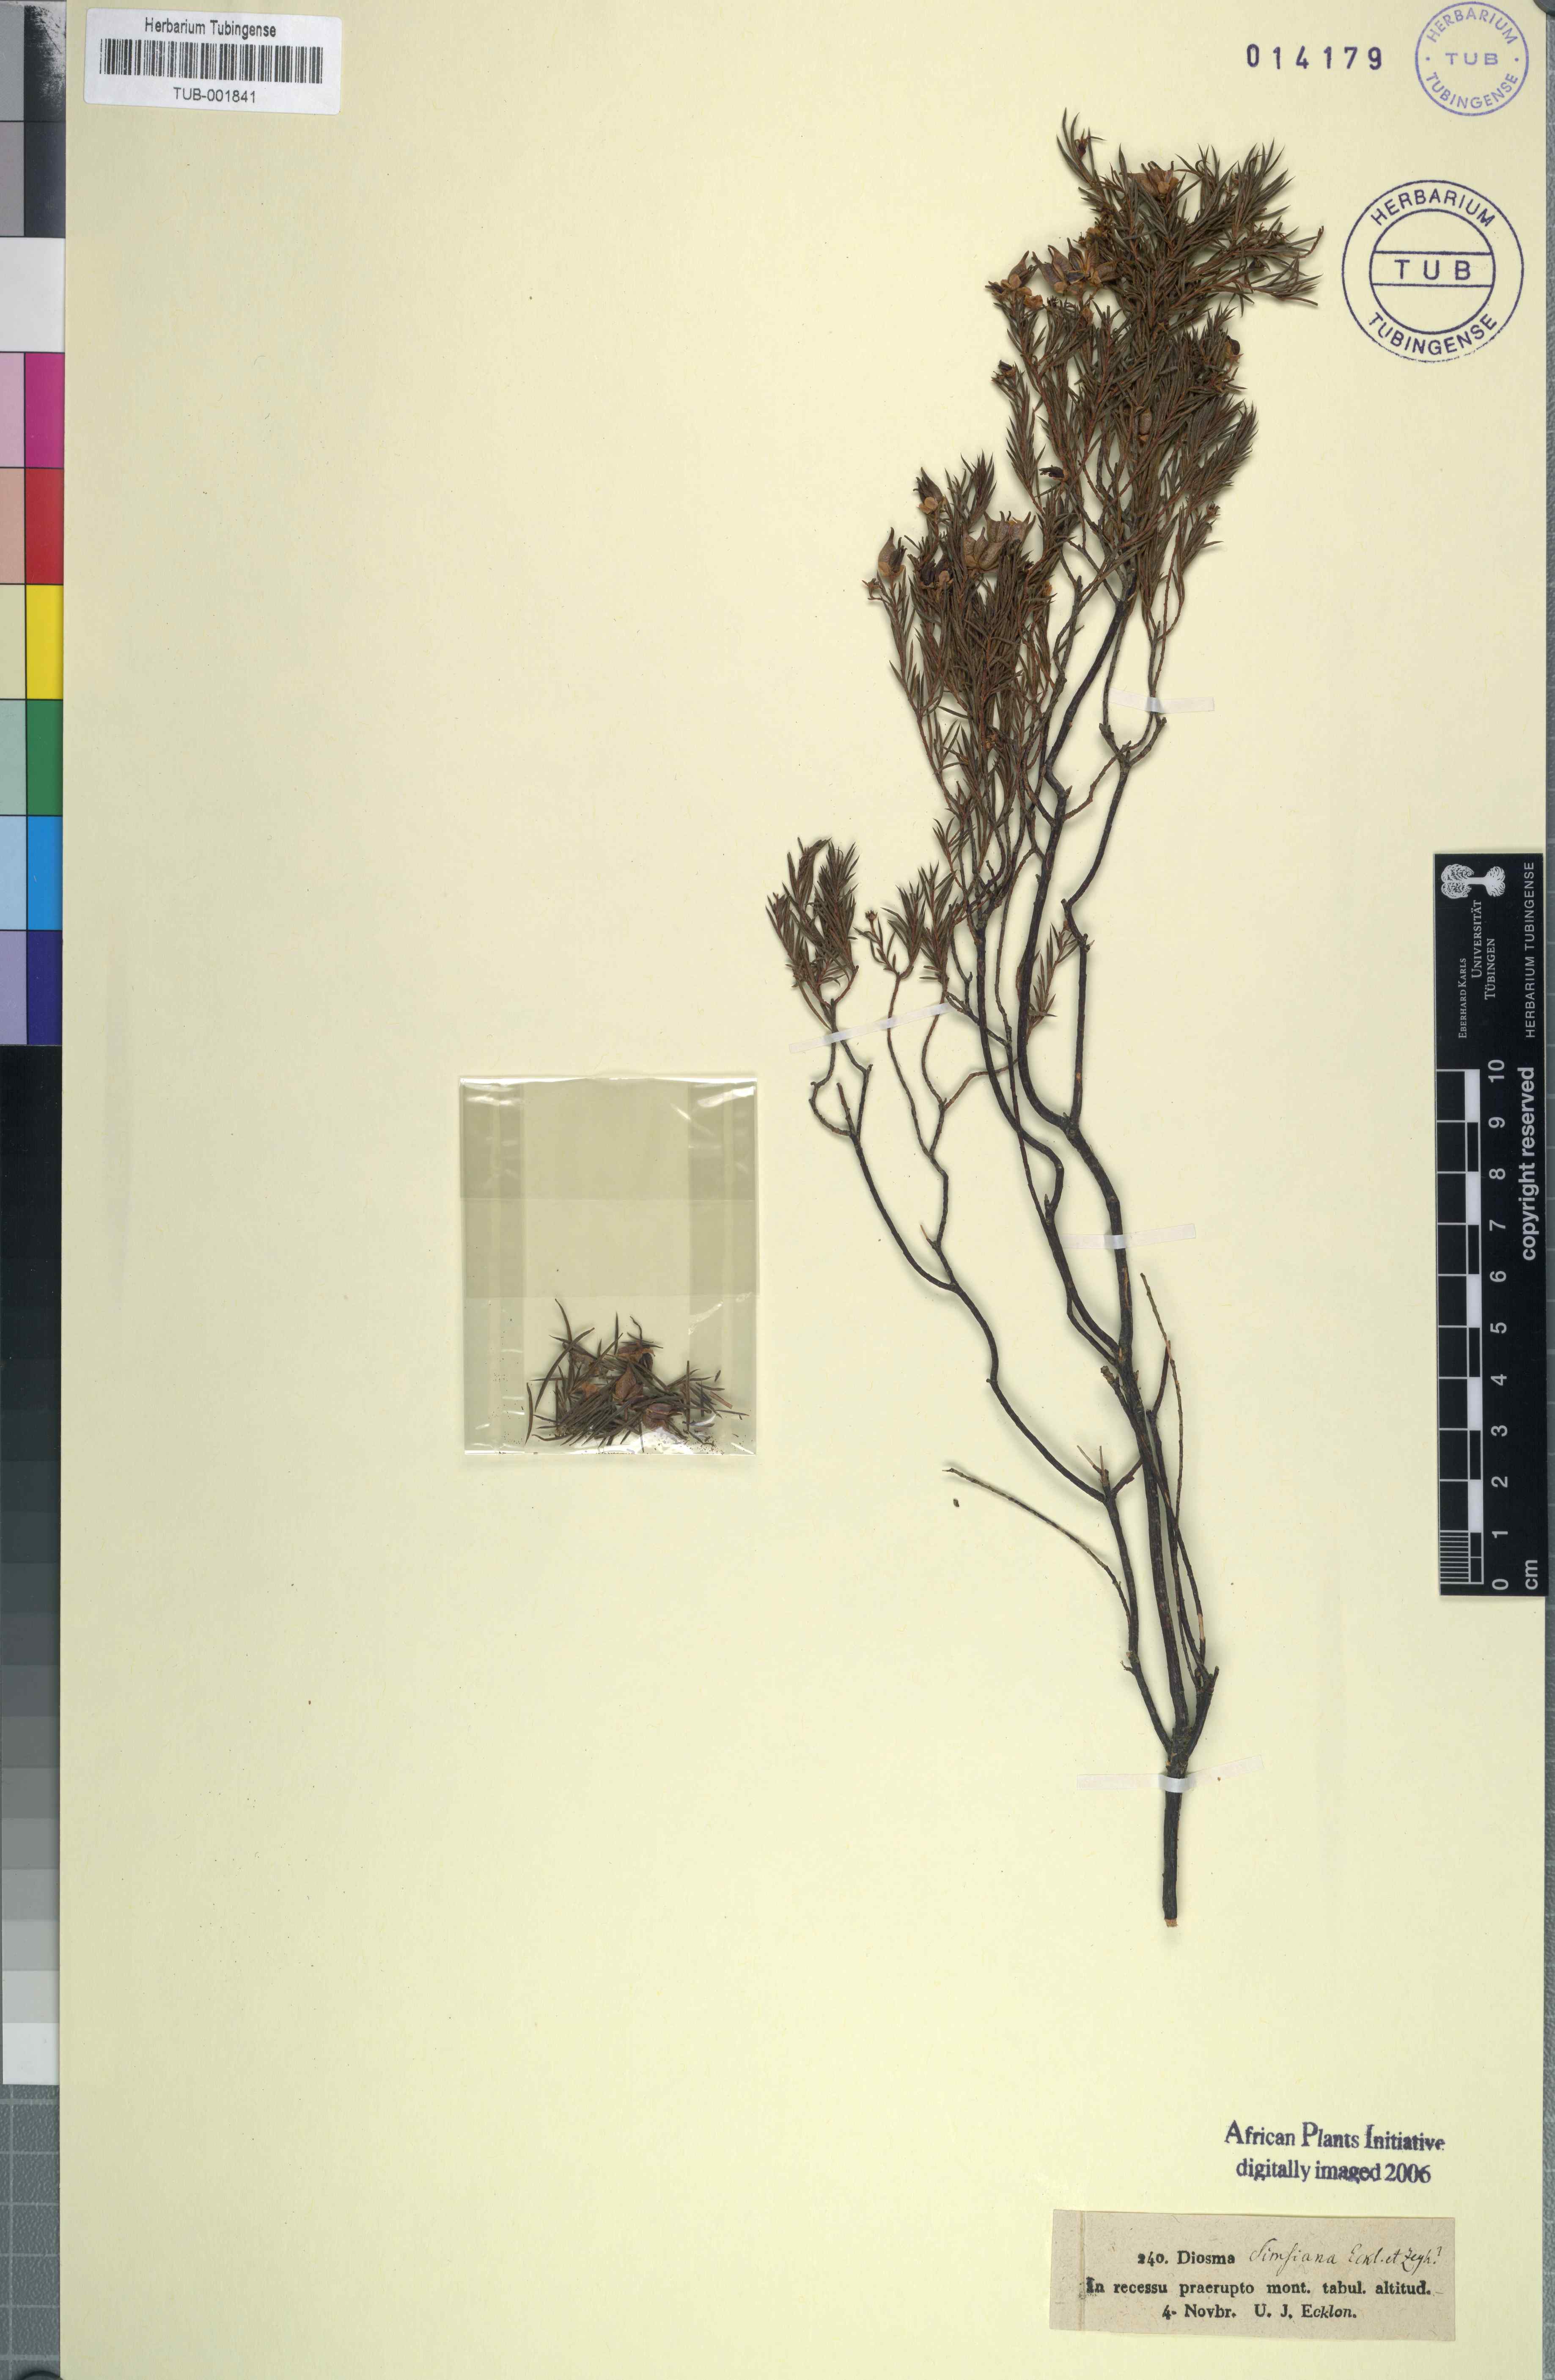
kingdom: Plantae
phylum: Tracheophyta
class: Magnoliopsida
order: Sapindales
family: Rutaceae
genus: Diosma
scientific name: Diosma oppositifolia
